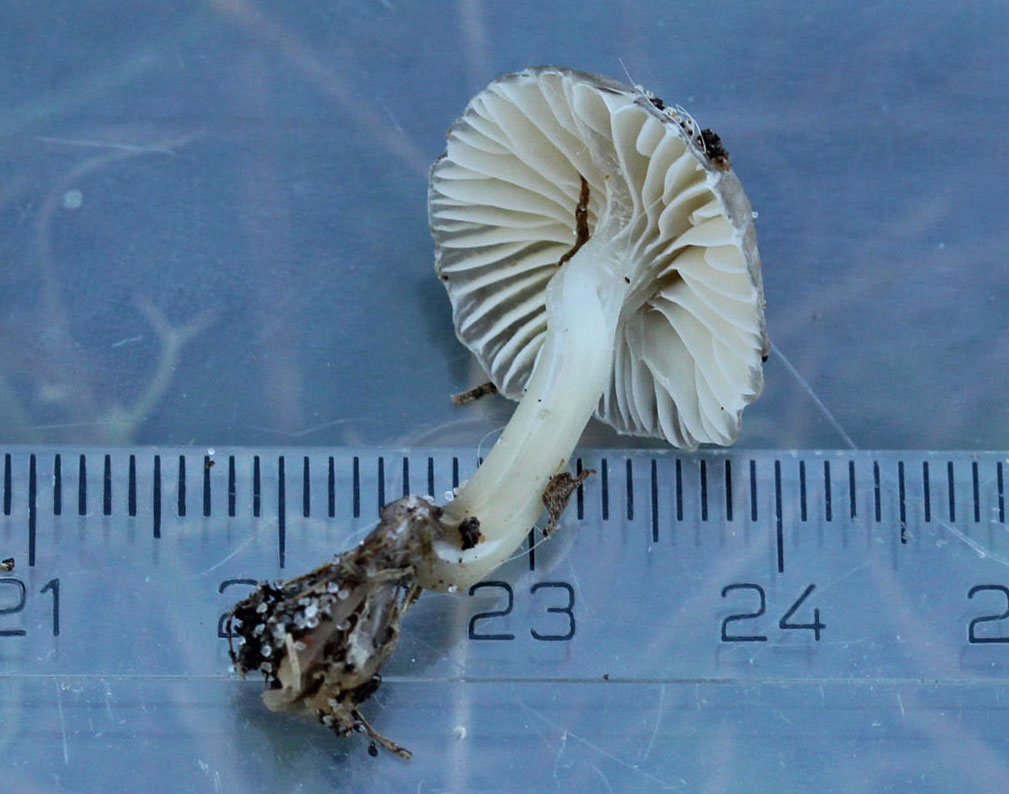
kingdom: Fungi
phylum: Basidiomycota
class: Agaricomycetes
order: Agaricales
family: Mycenaceae
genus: Mycena
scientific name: Mycena epipterygia
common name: Yellowleg bonnet
